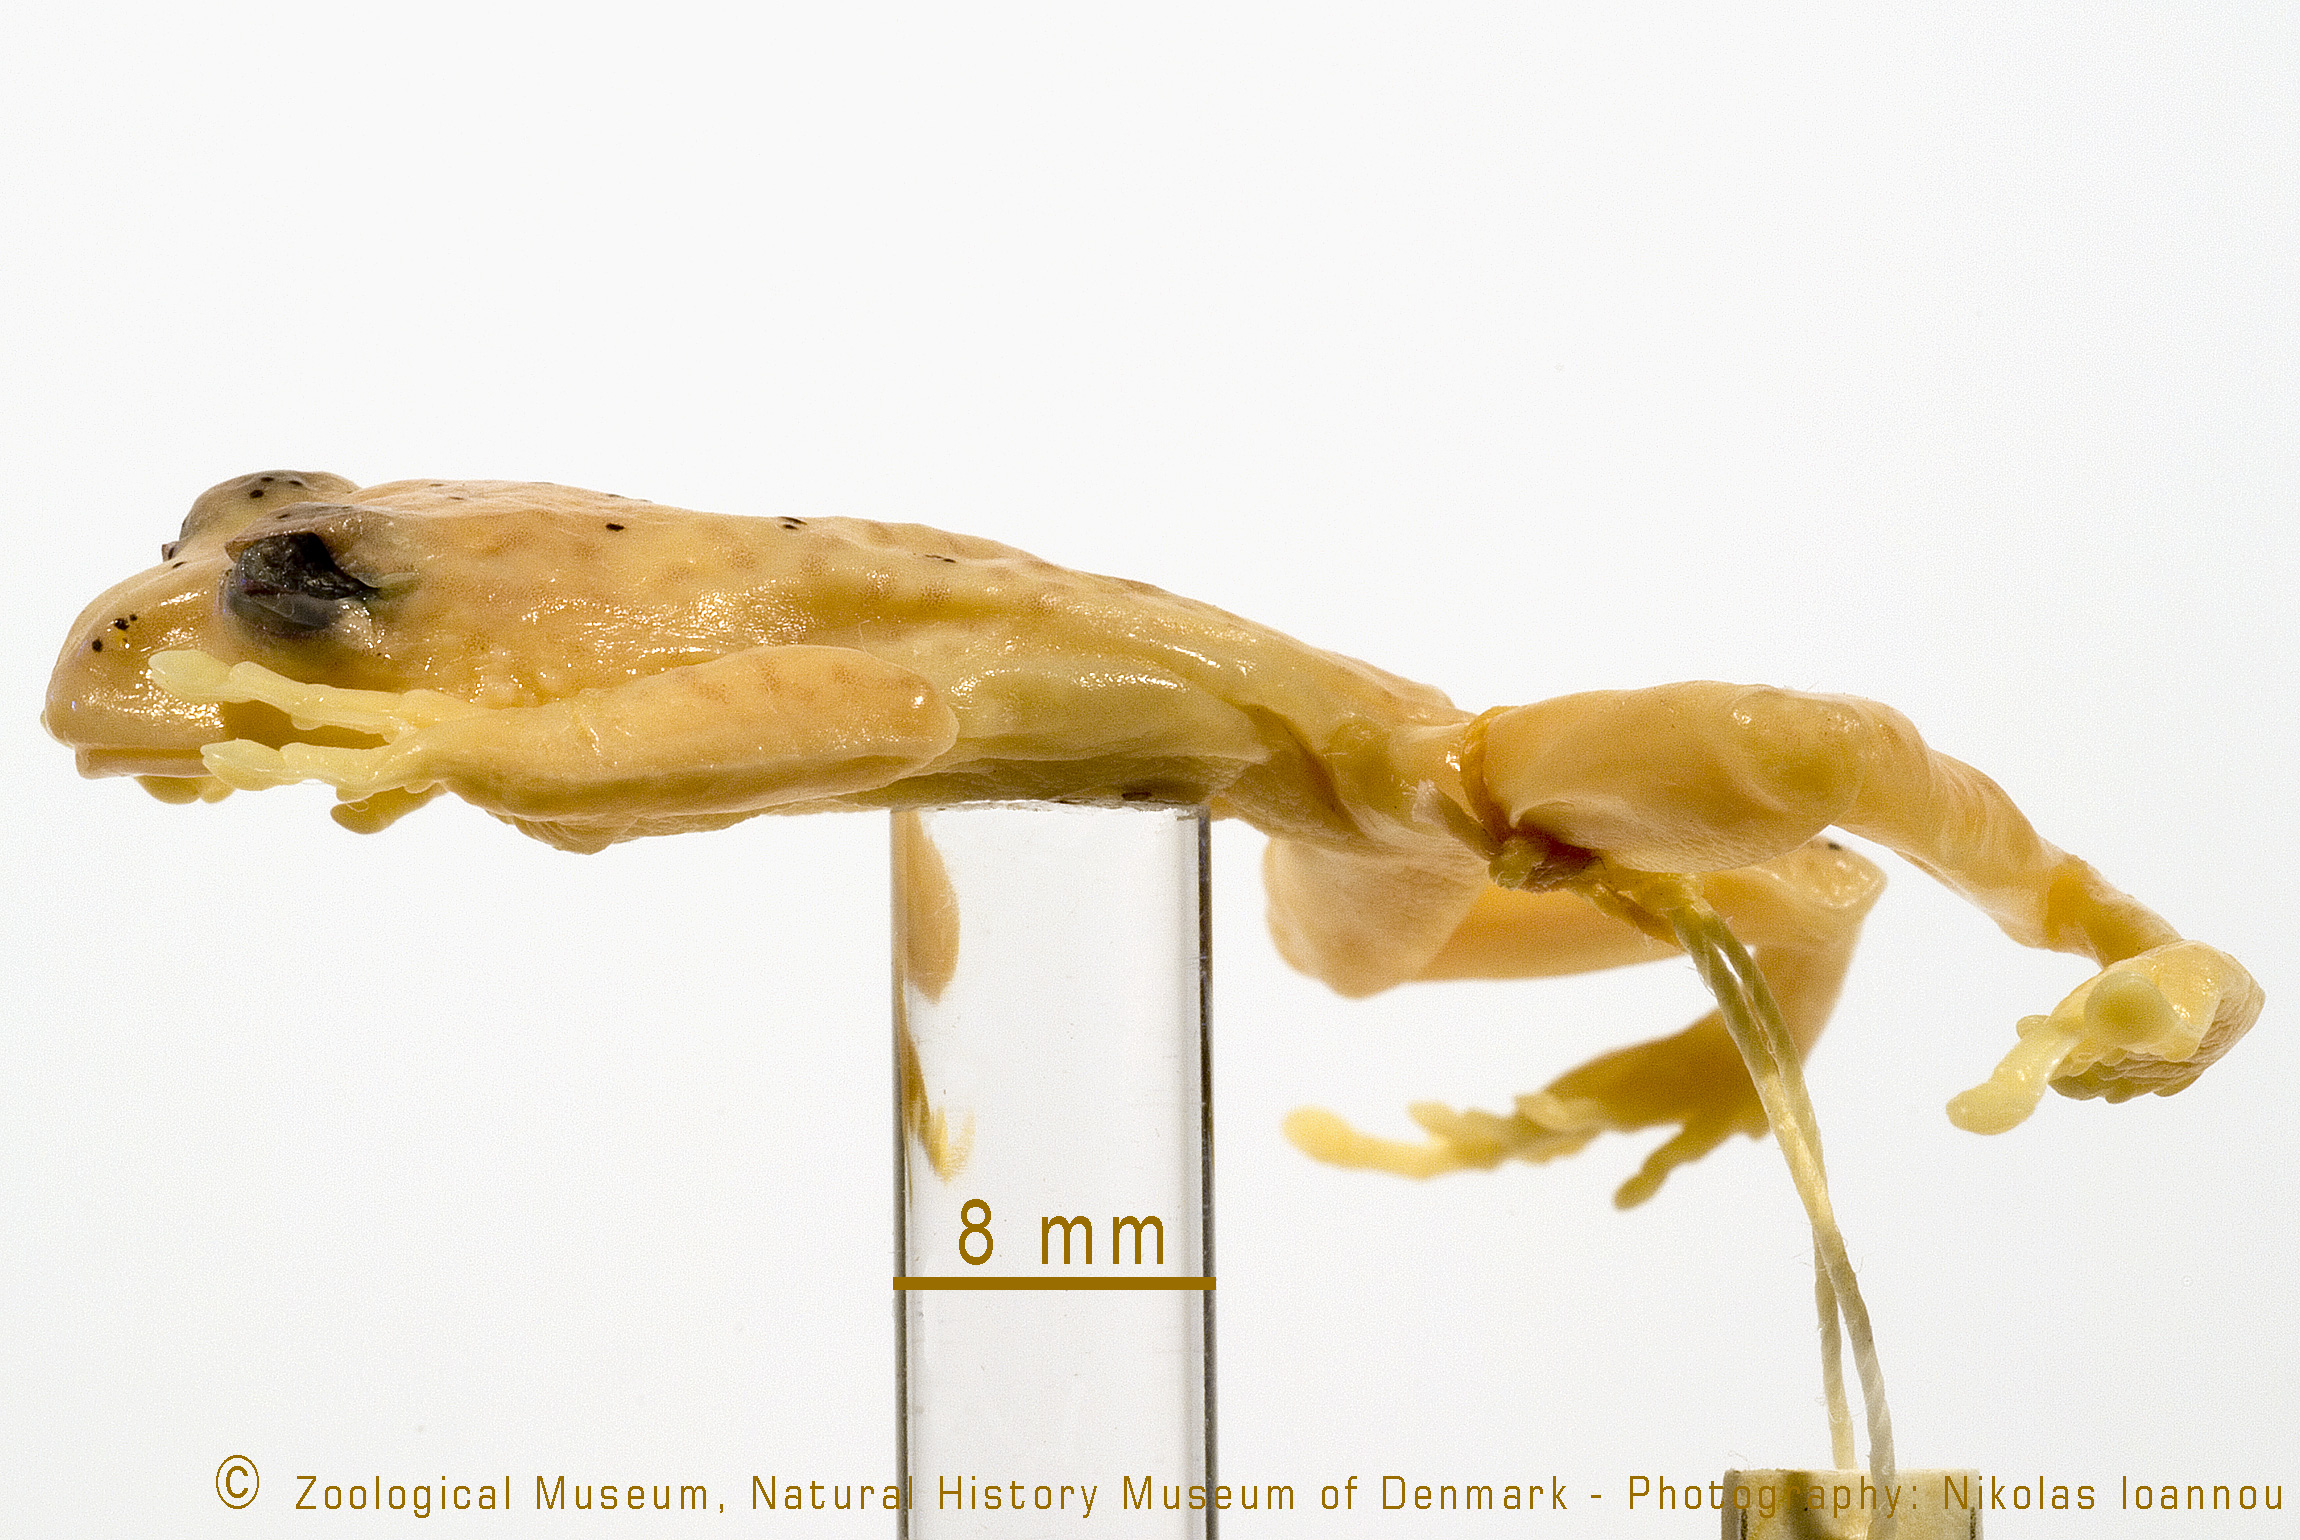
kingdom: Animalia
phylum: Chordata
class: Amphibia
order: Anura
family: Arthroleptidae
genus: Leptopelis
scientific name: Leptopelis flavomaculatus
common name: Johnston's treefrog
